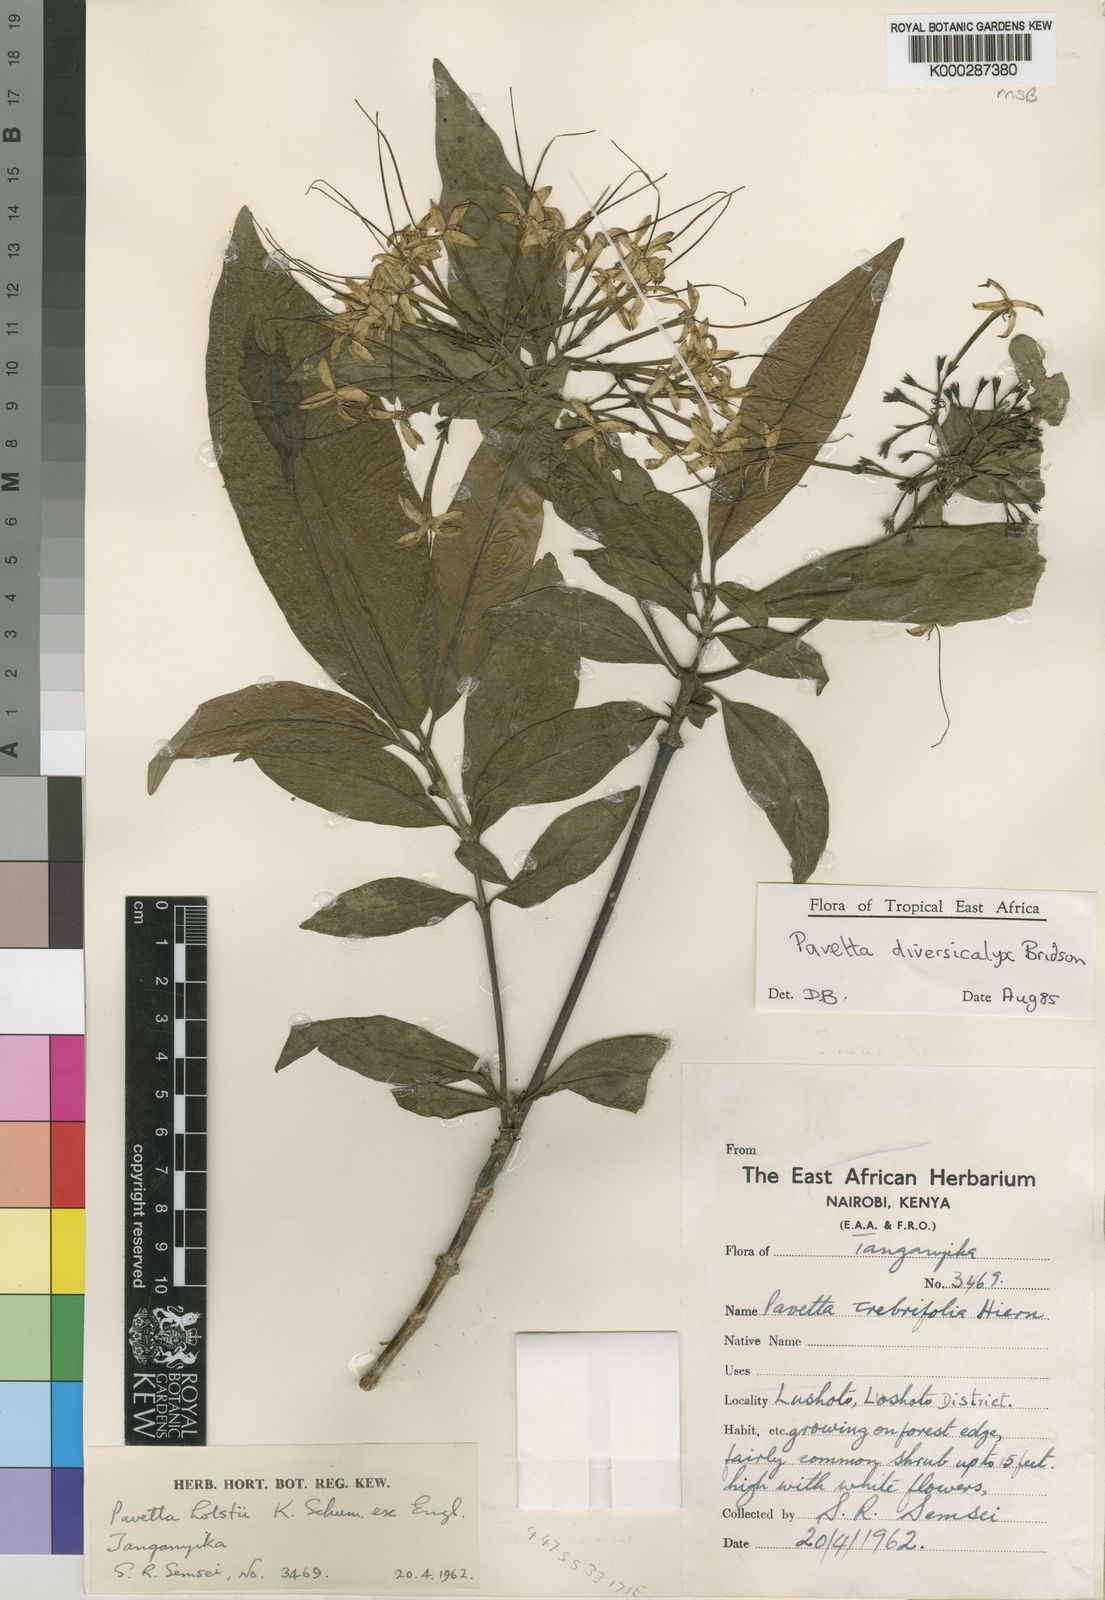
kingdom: Plantae
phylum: Tracheophyta
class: Magnoliopsida
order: Gentianales
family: Rubiaceae
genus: Pavetta
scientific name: Pavetta diversicalyx
